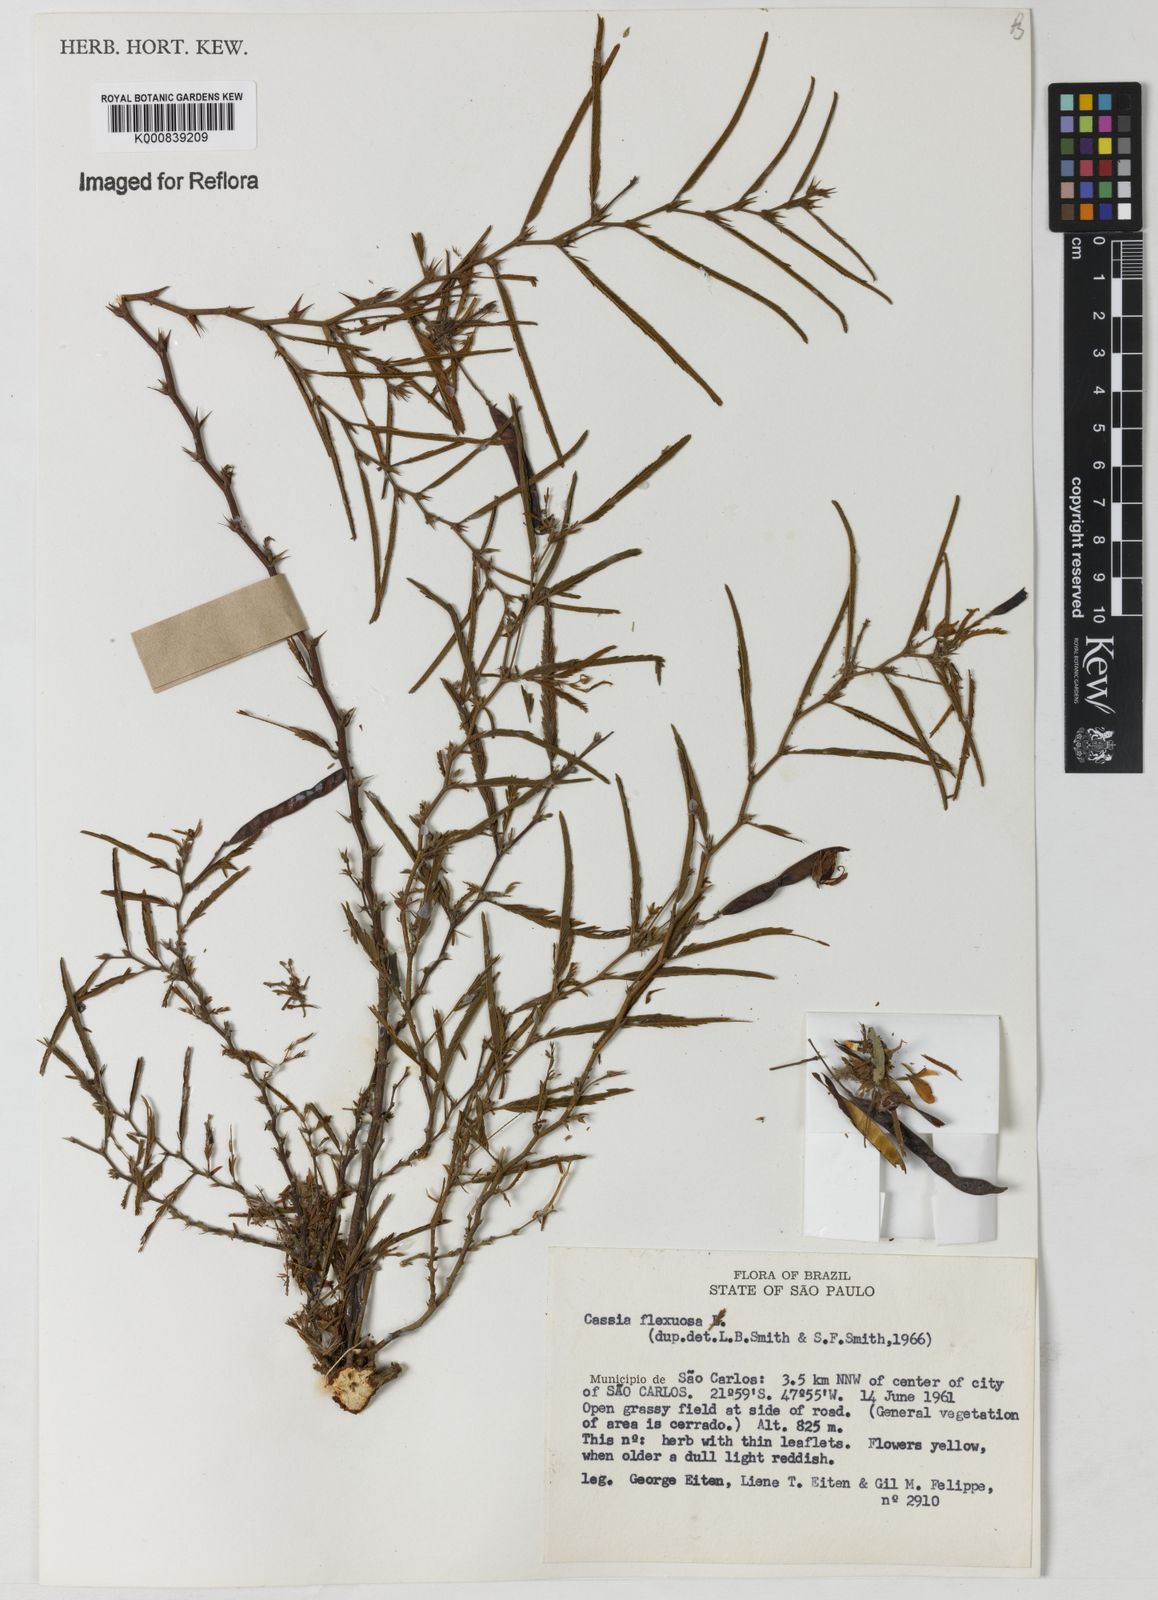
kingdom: Plantae
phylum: Tracheophyta
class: Magnoliopsida
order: Fabales
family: Fabaceae
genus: Chamaecrista
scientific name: Chamaecrista flexuosa
